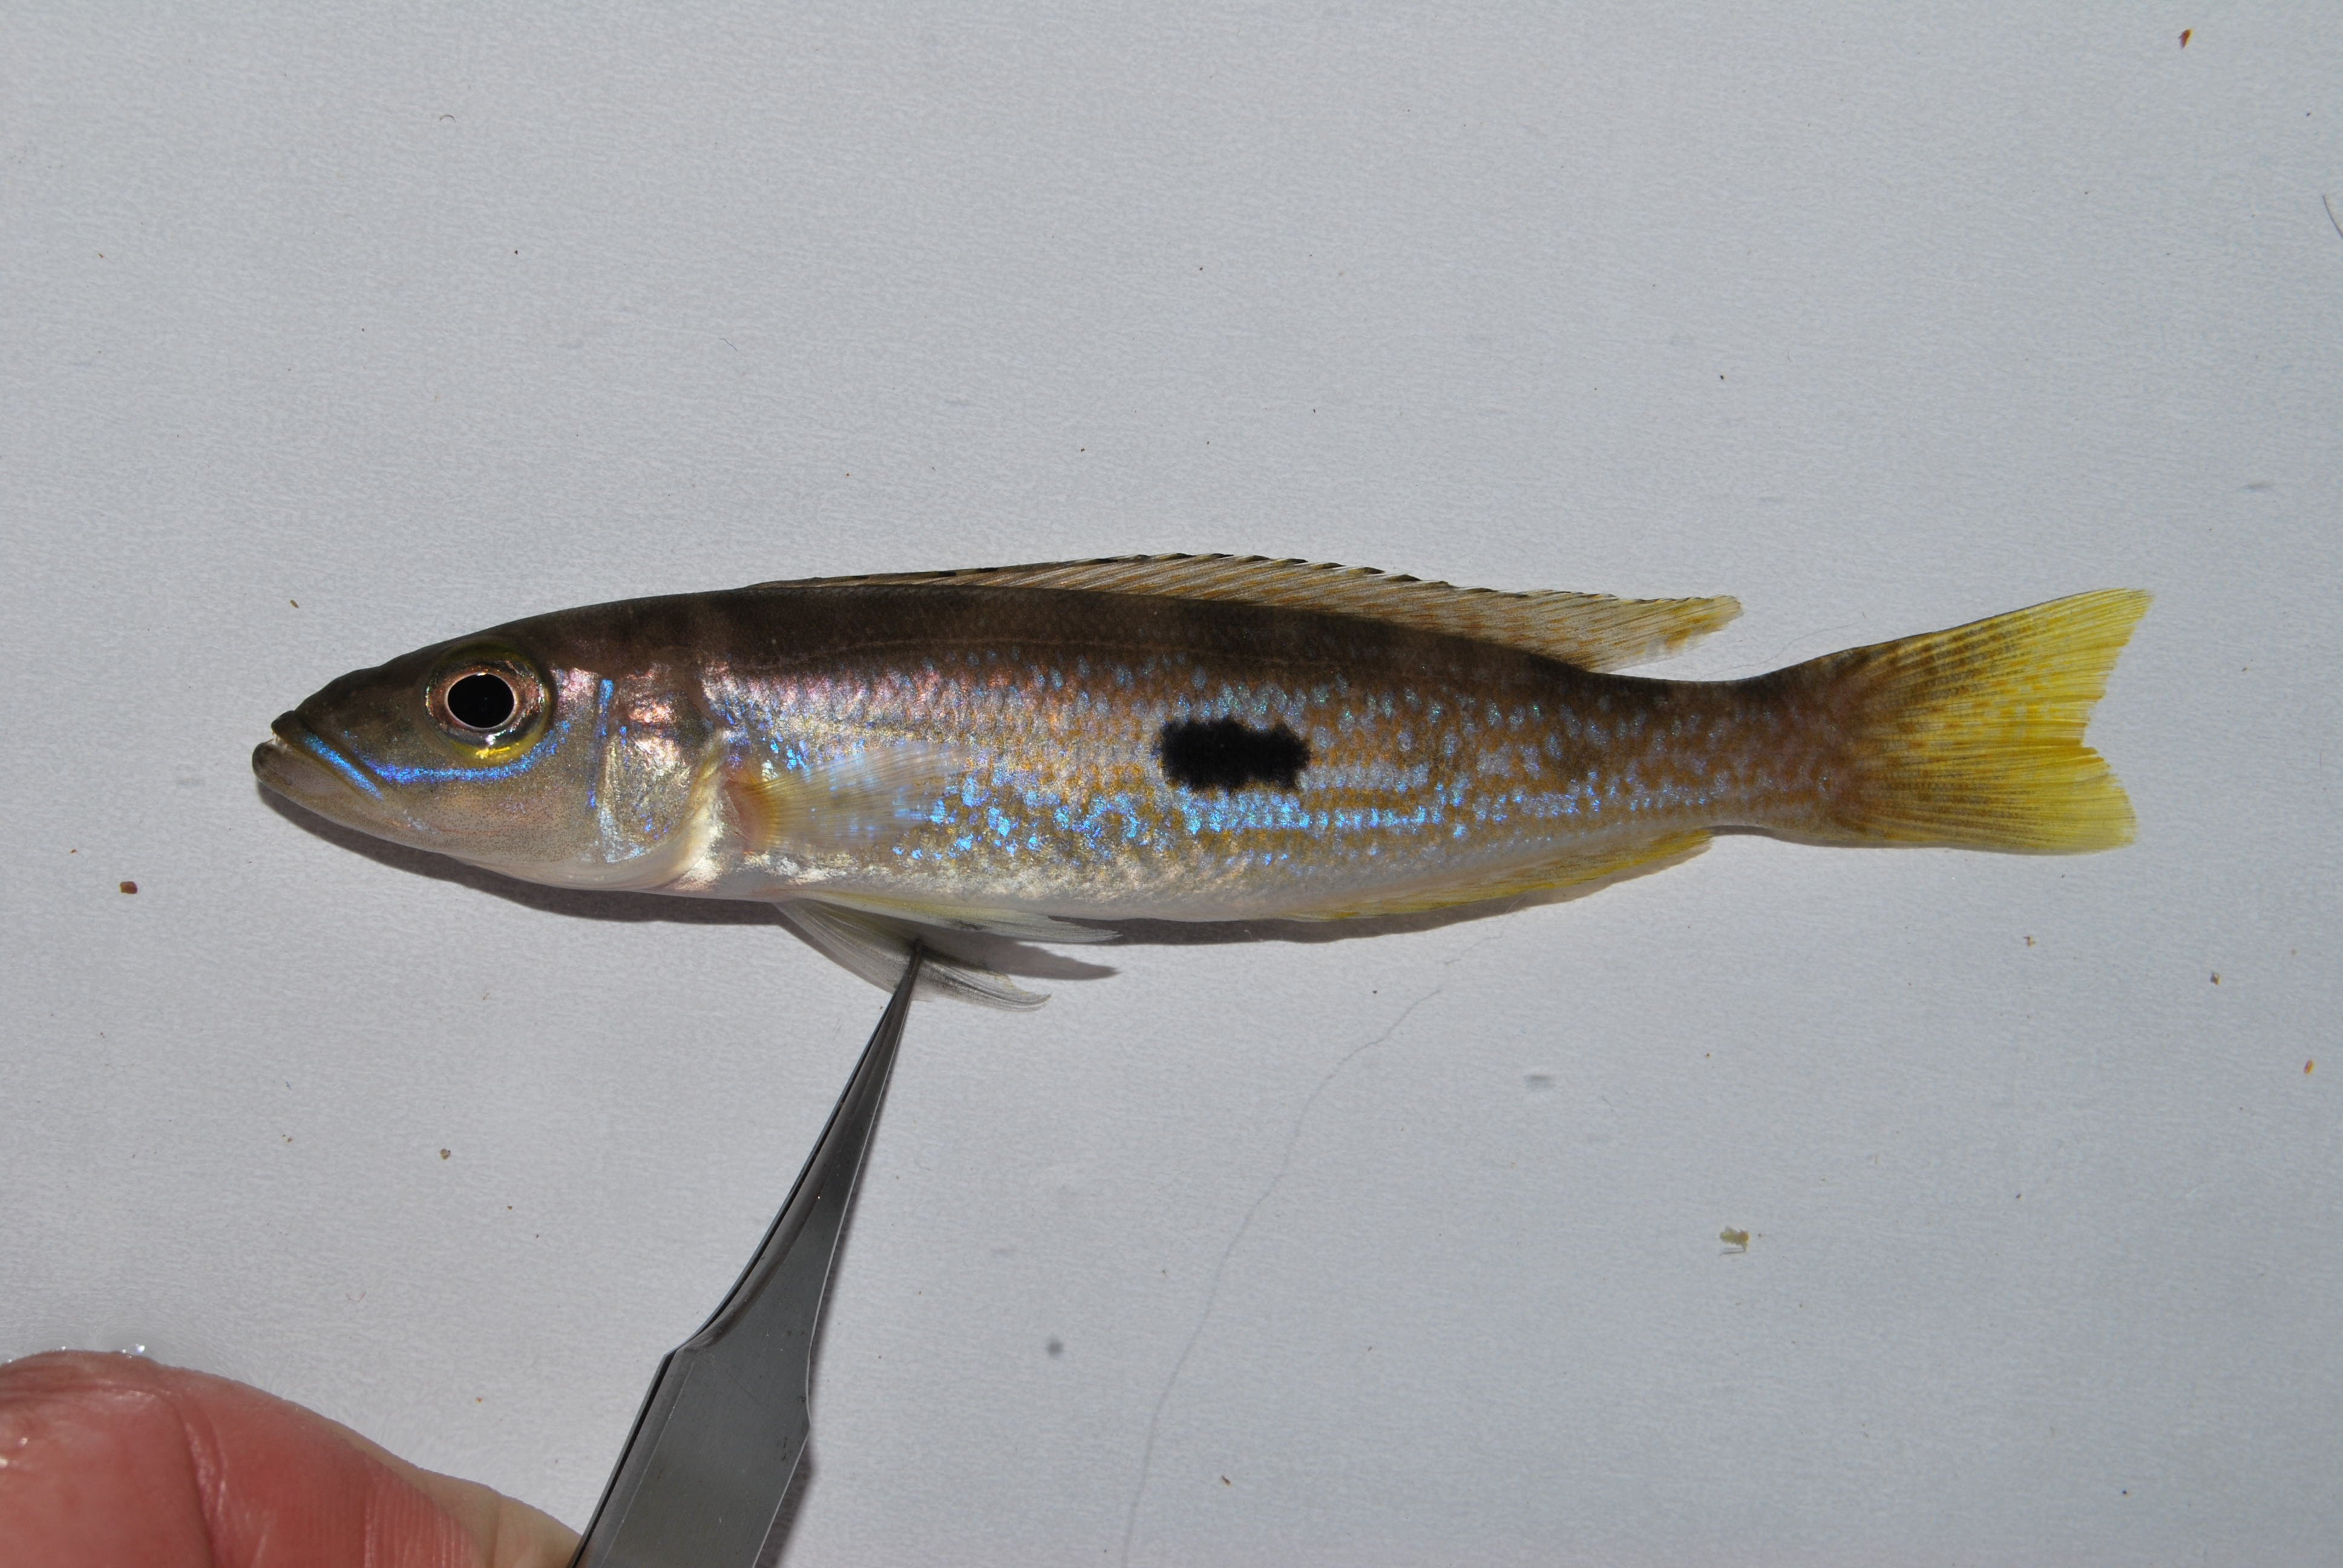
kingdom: Animalia
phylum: Chordata
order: Perciformes
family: Cichlidae
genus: Lepidiolamprologus
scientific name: Lepidiolamprologus attenuatus
